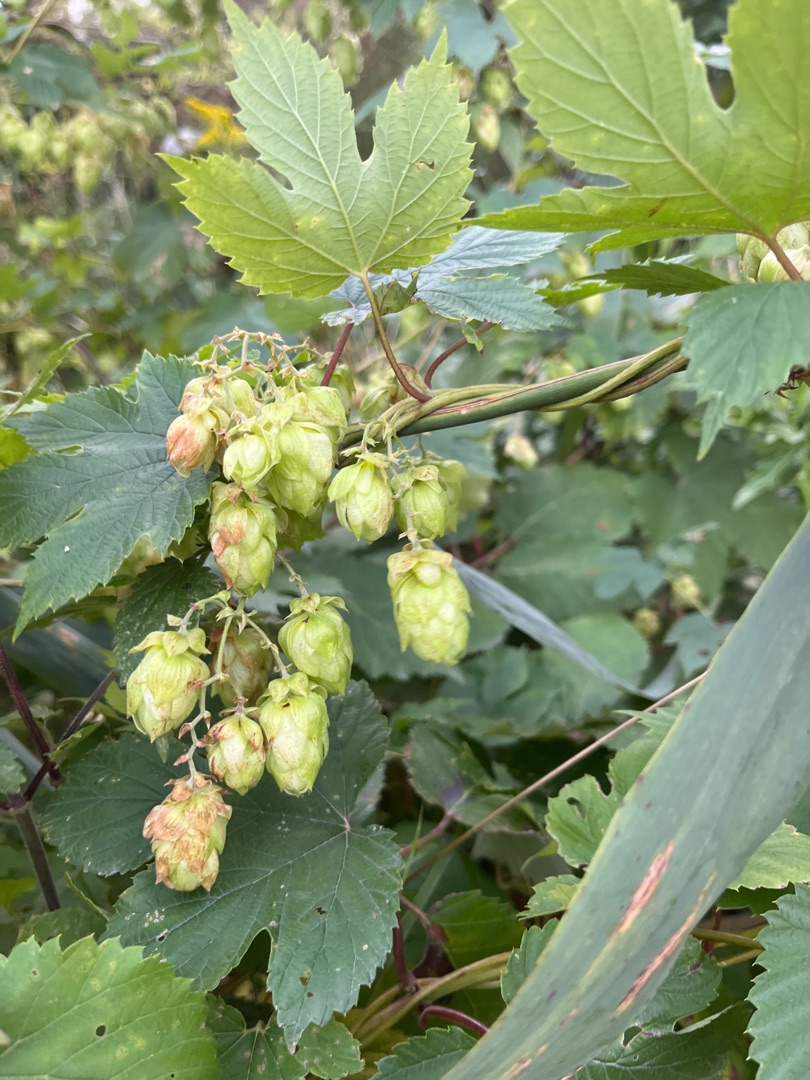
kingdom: Plantae
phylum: Tracheophyta
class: Magnoliopsida
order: Rosales
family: Cannabaceae
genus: Humulus
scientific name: Humulus lupulus
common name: Humle
